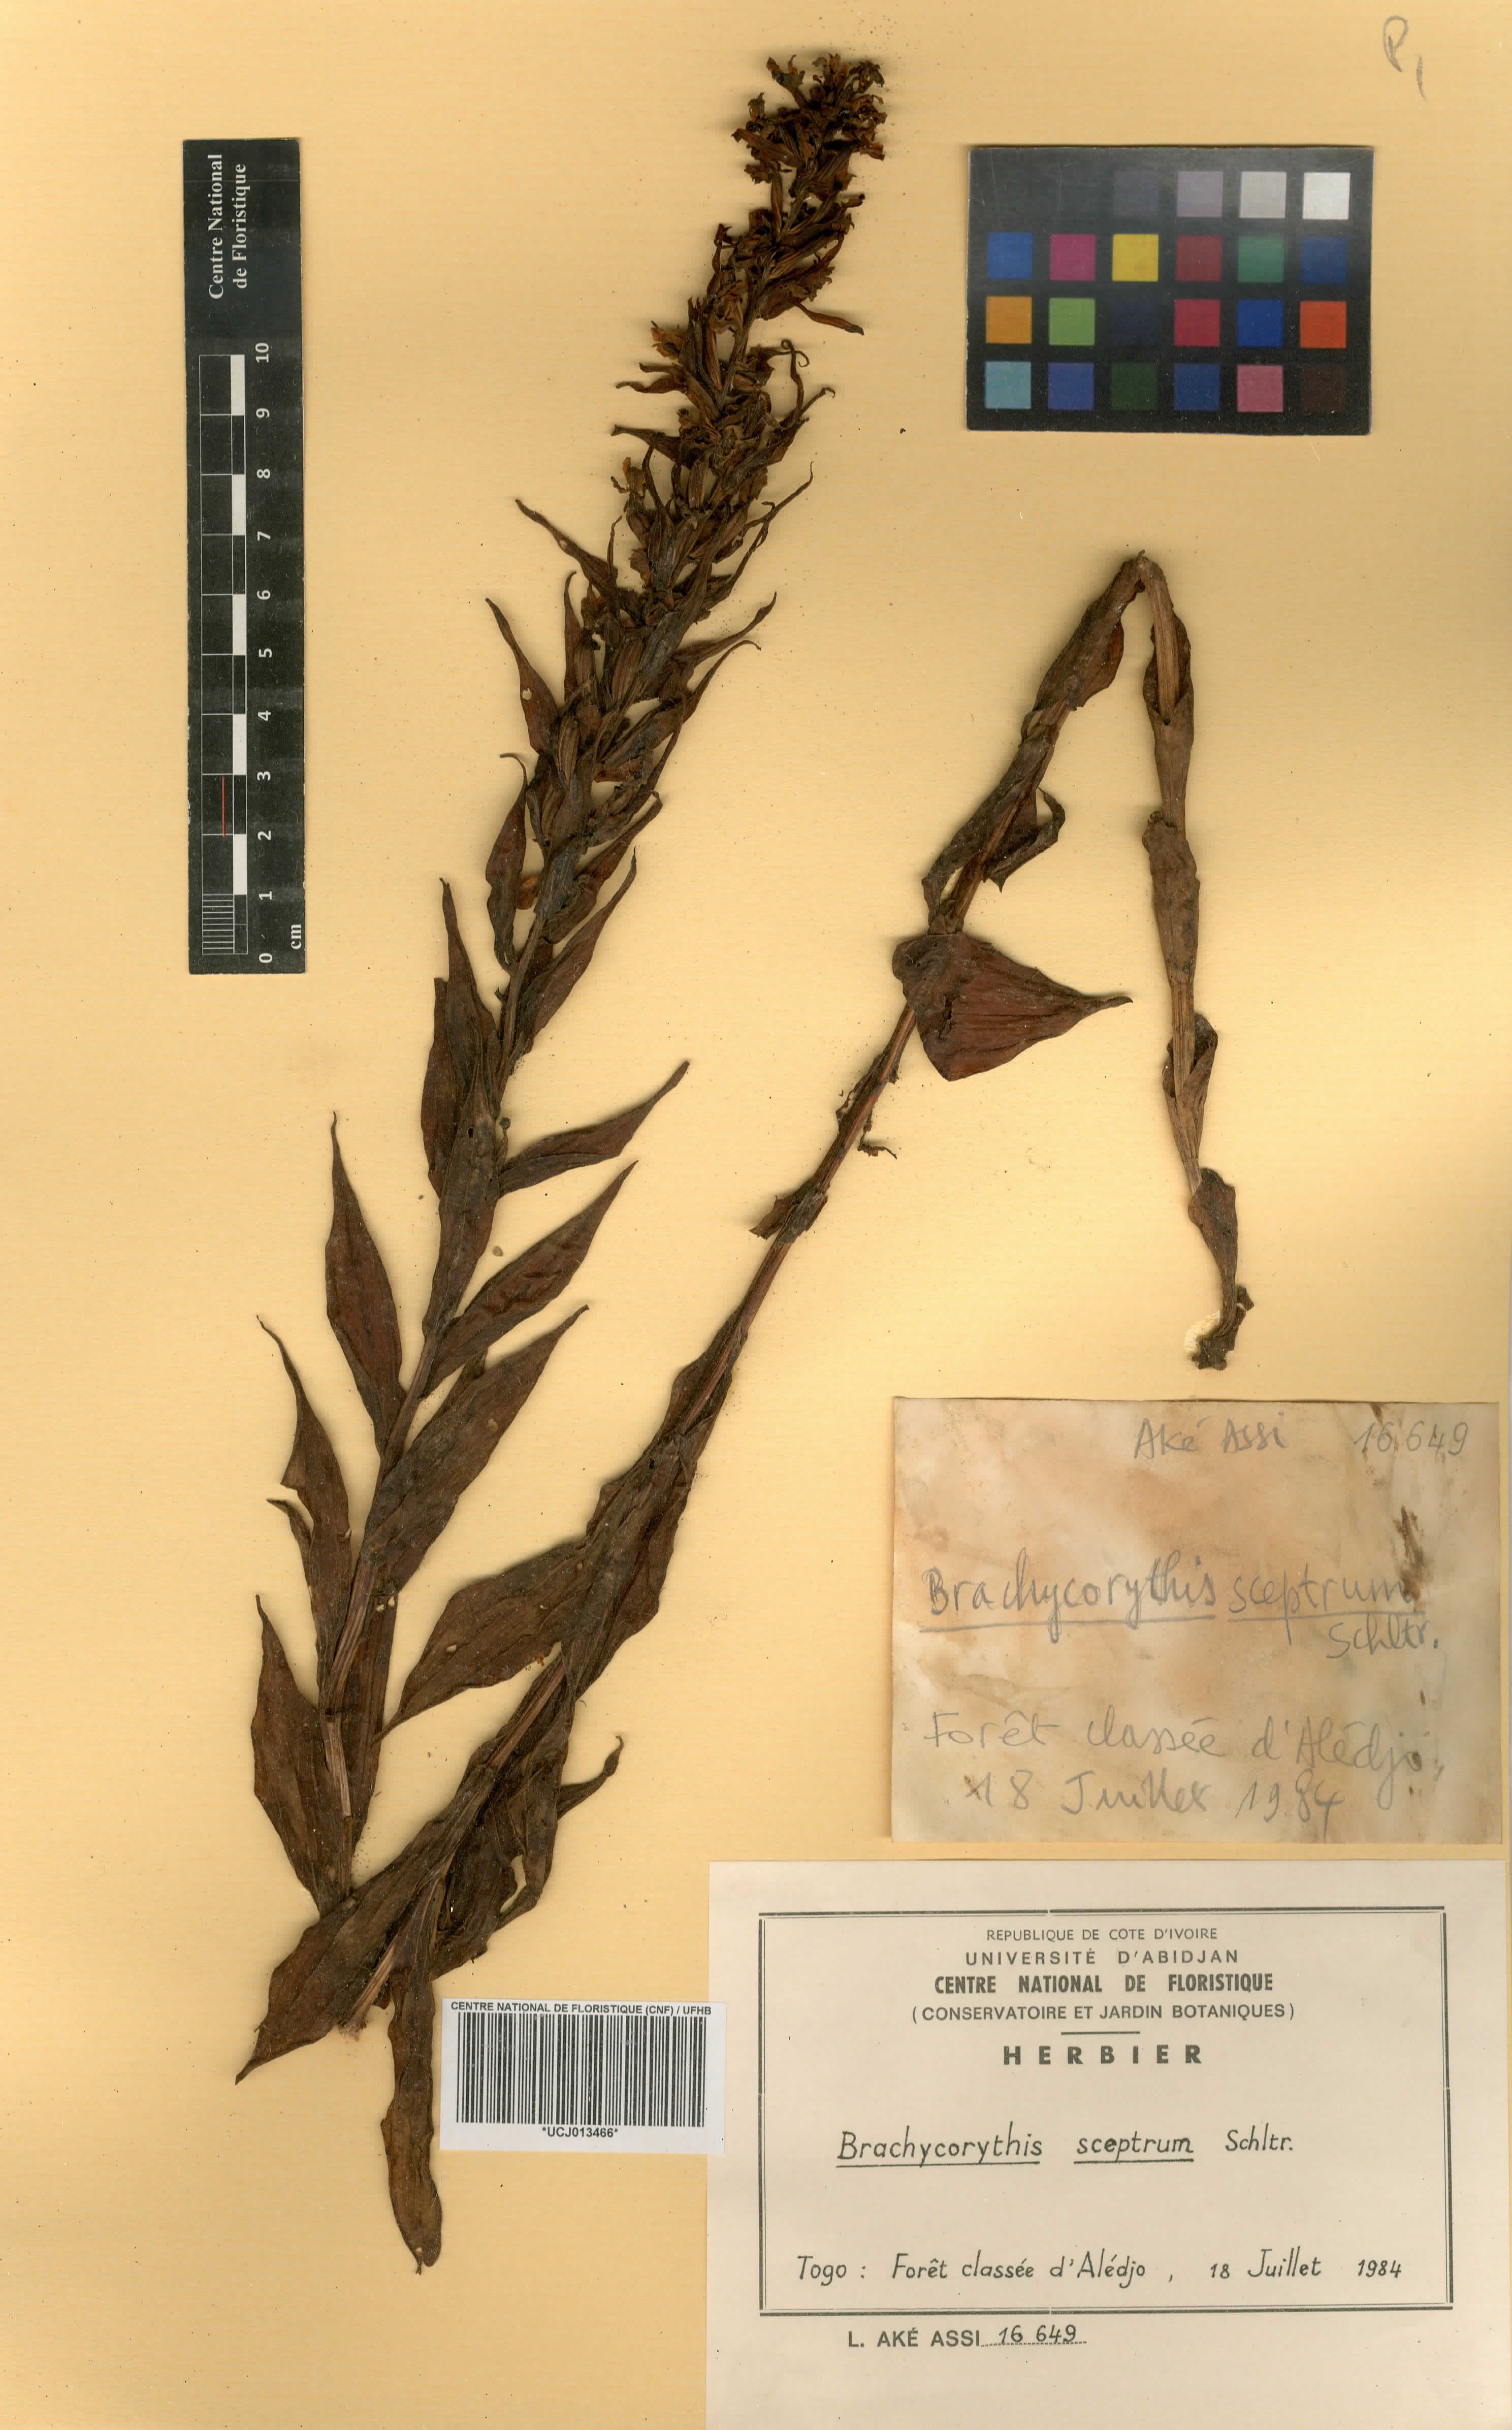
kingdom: Plantae
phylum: Tracheophyta
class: Liliopsida
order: Asparagales
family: Orchidaceae
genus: Brachycorythis
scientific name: Brachycorythis sceptrum
